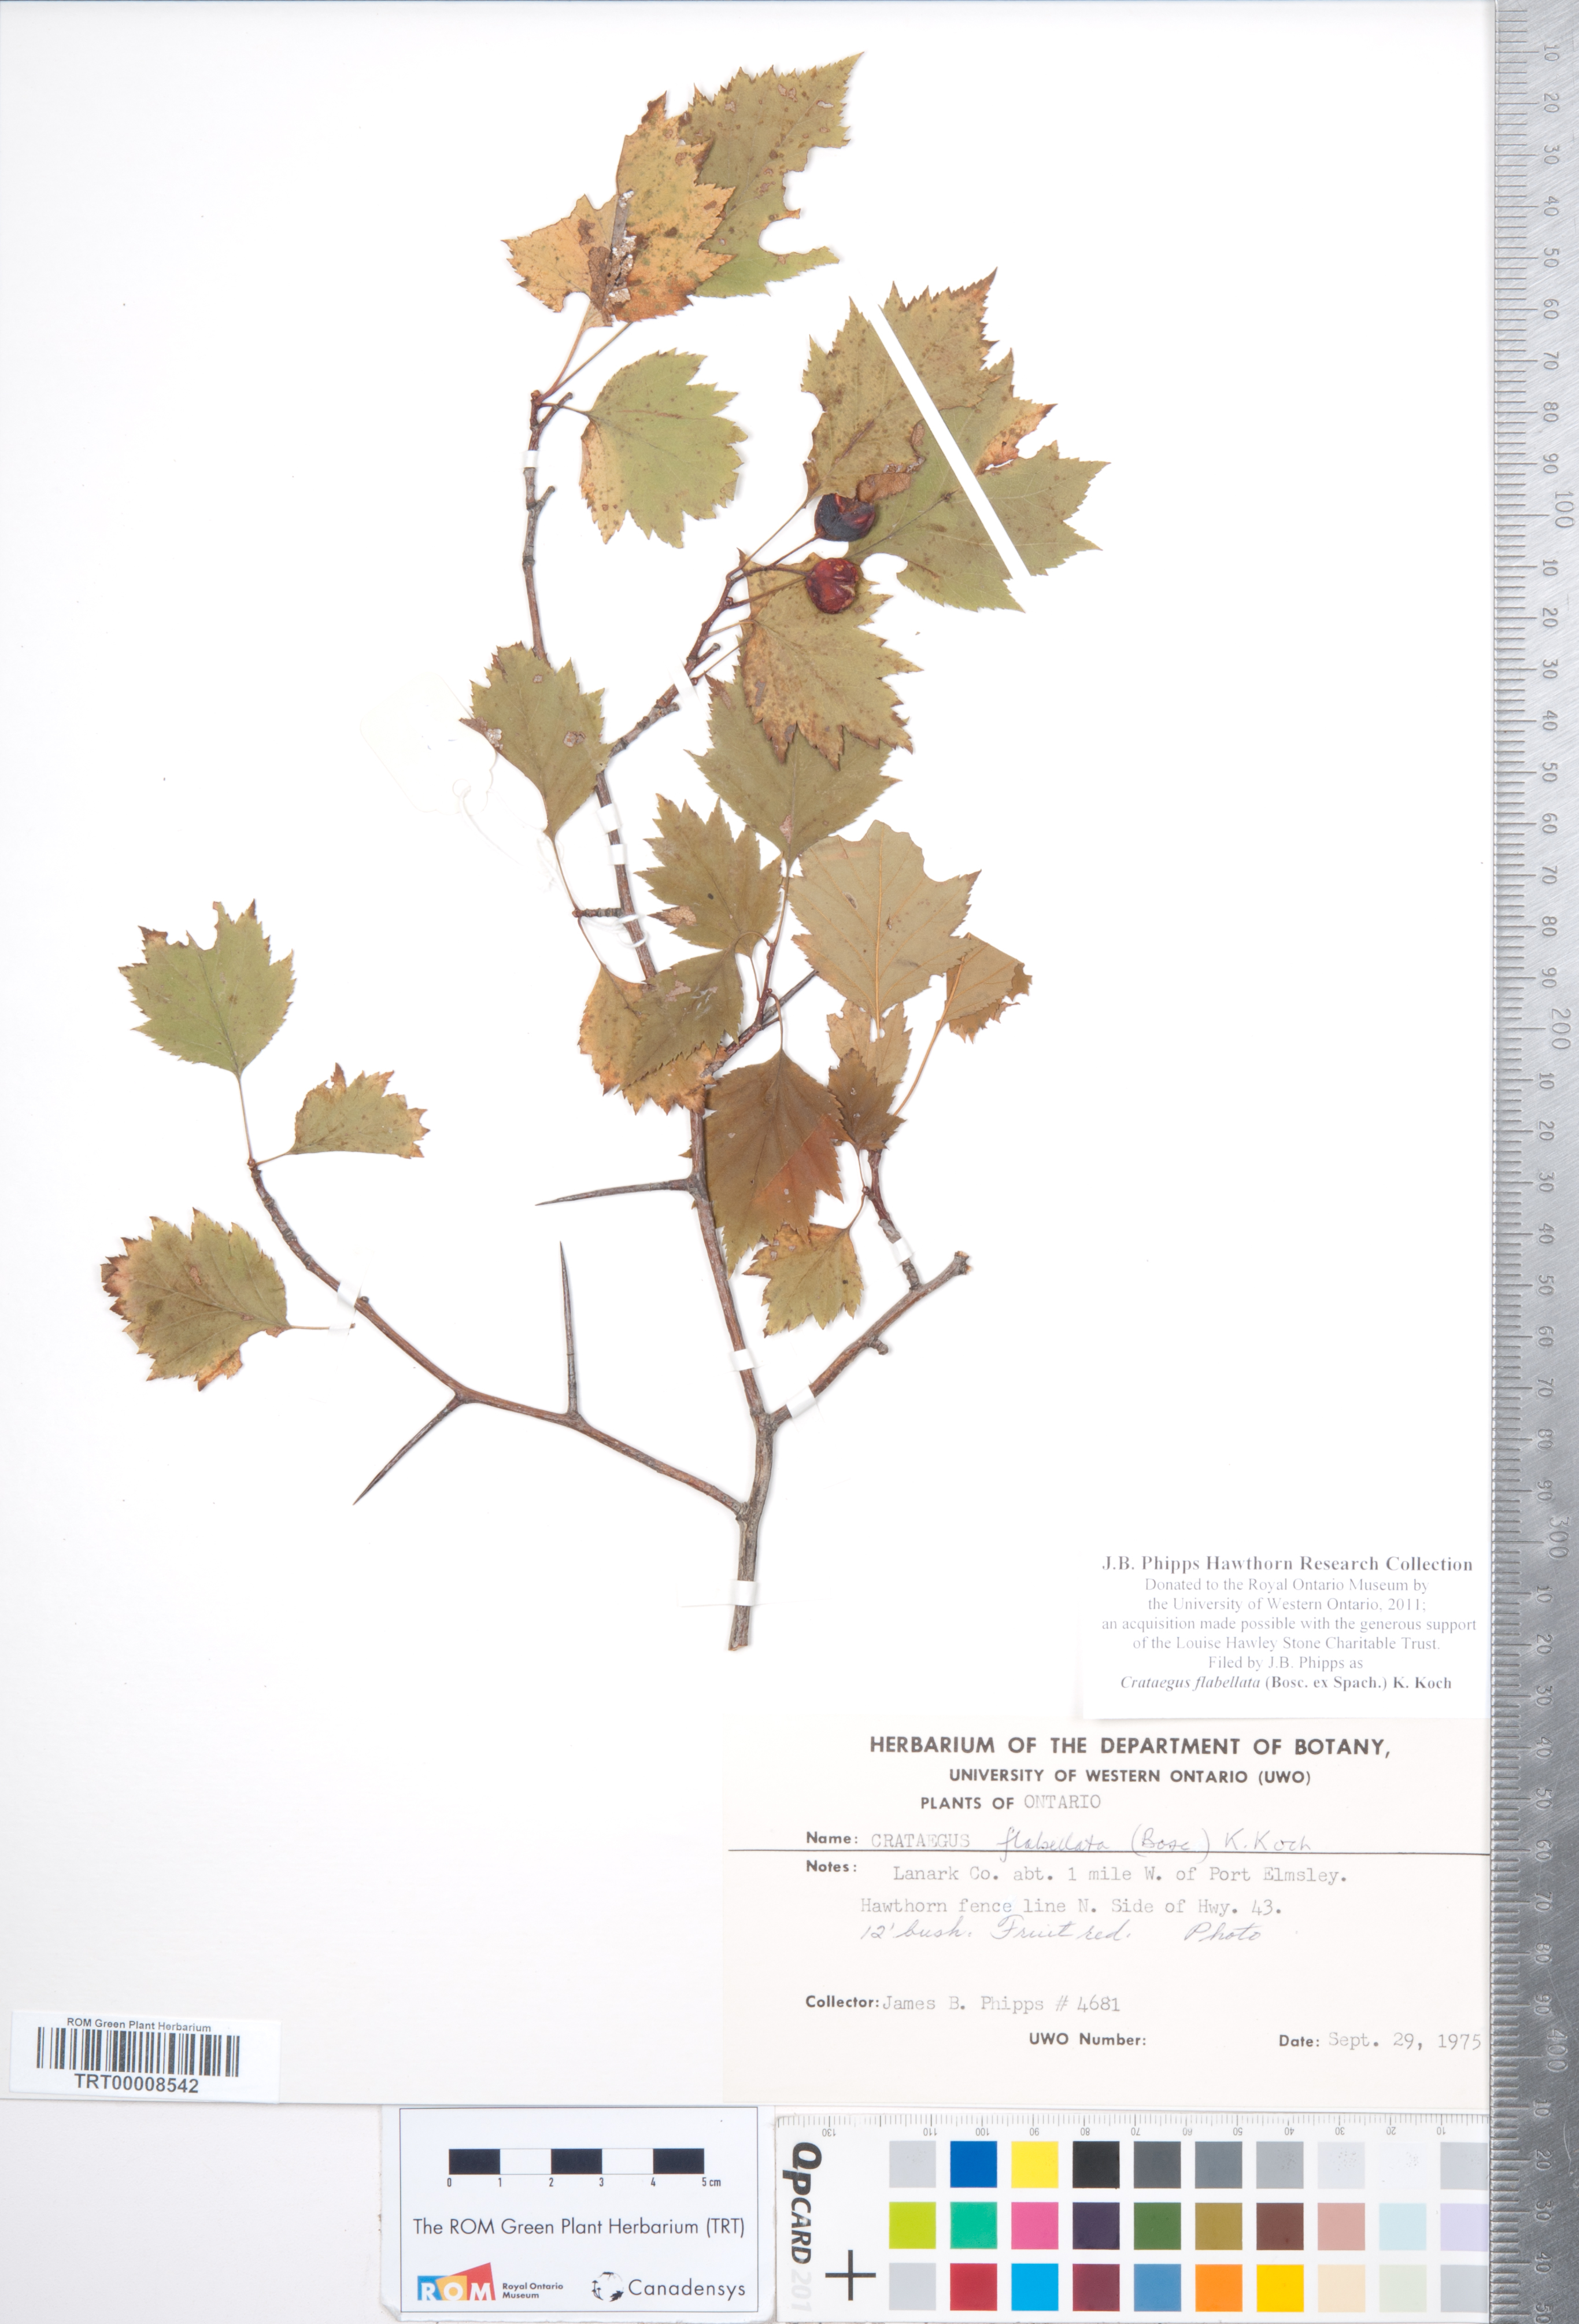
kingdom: Plantae
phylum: Tracheophyta
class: Magnoliopsida
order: Rosales
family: Rosaceae
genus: Crataegus
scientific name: Crataegus flabellata
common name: Bosc's hawthorn
